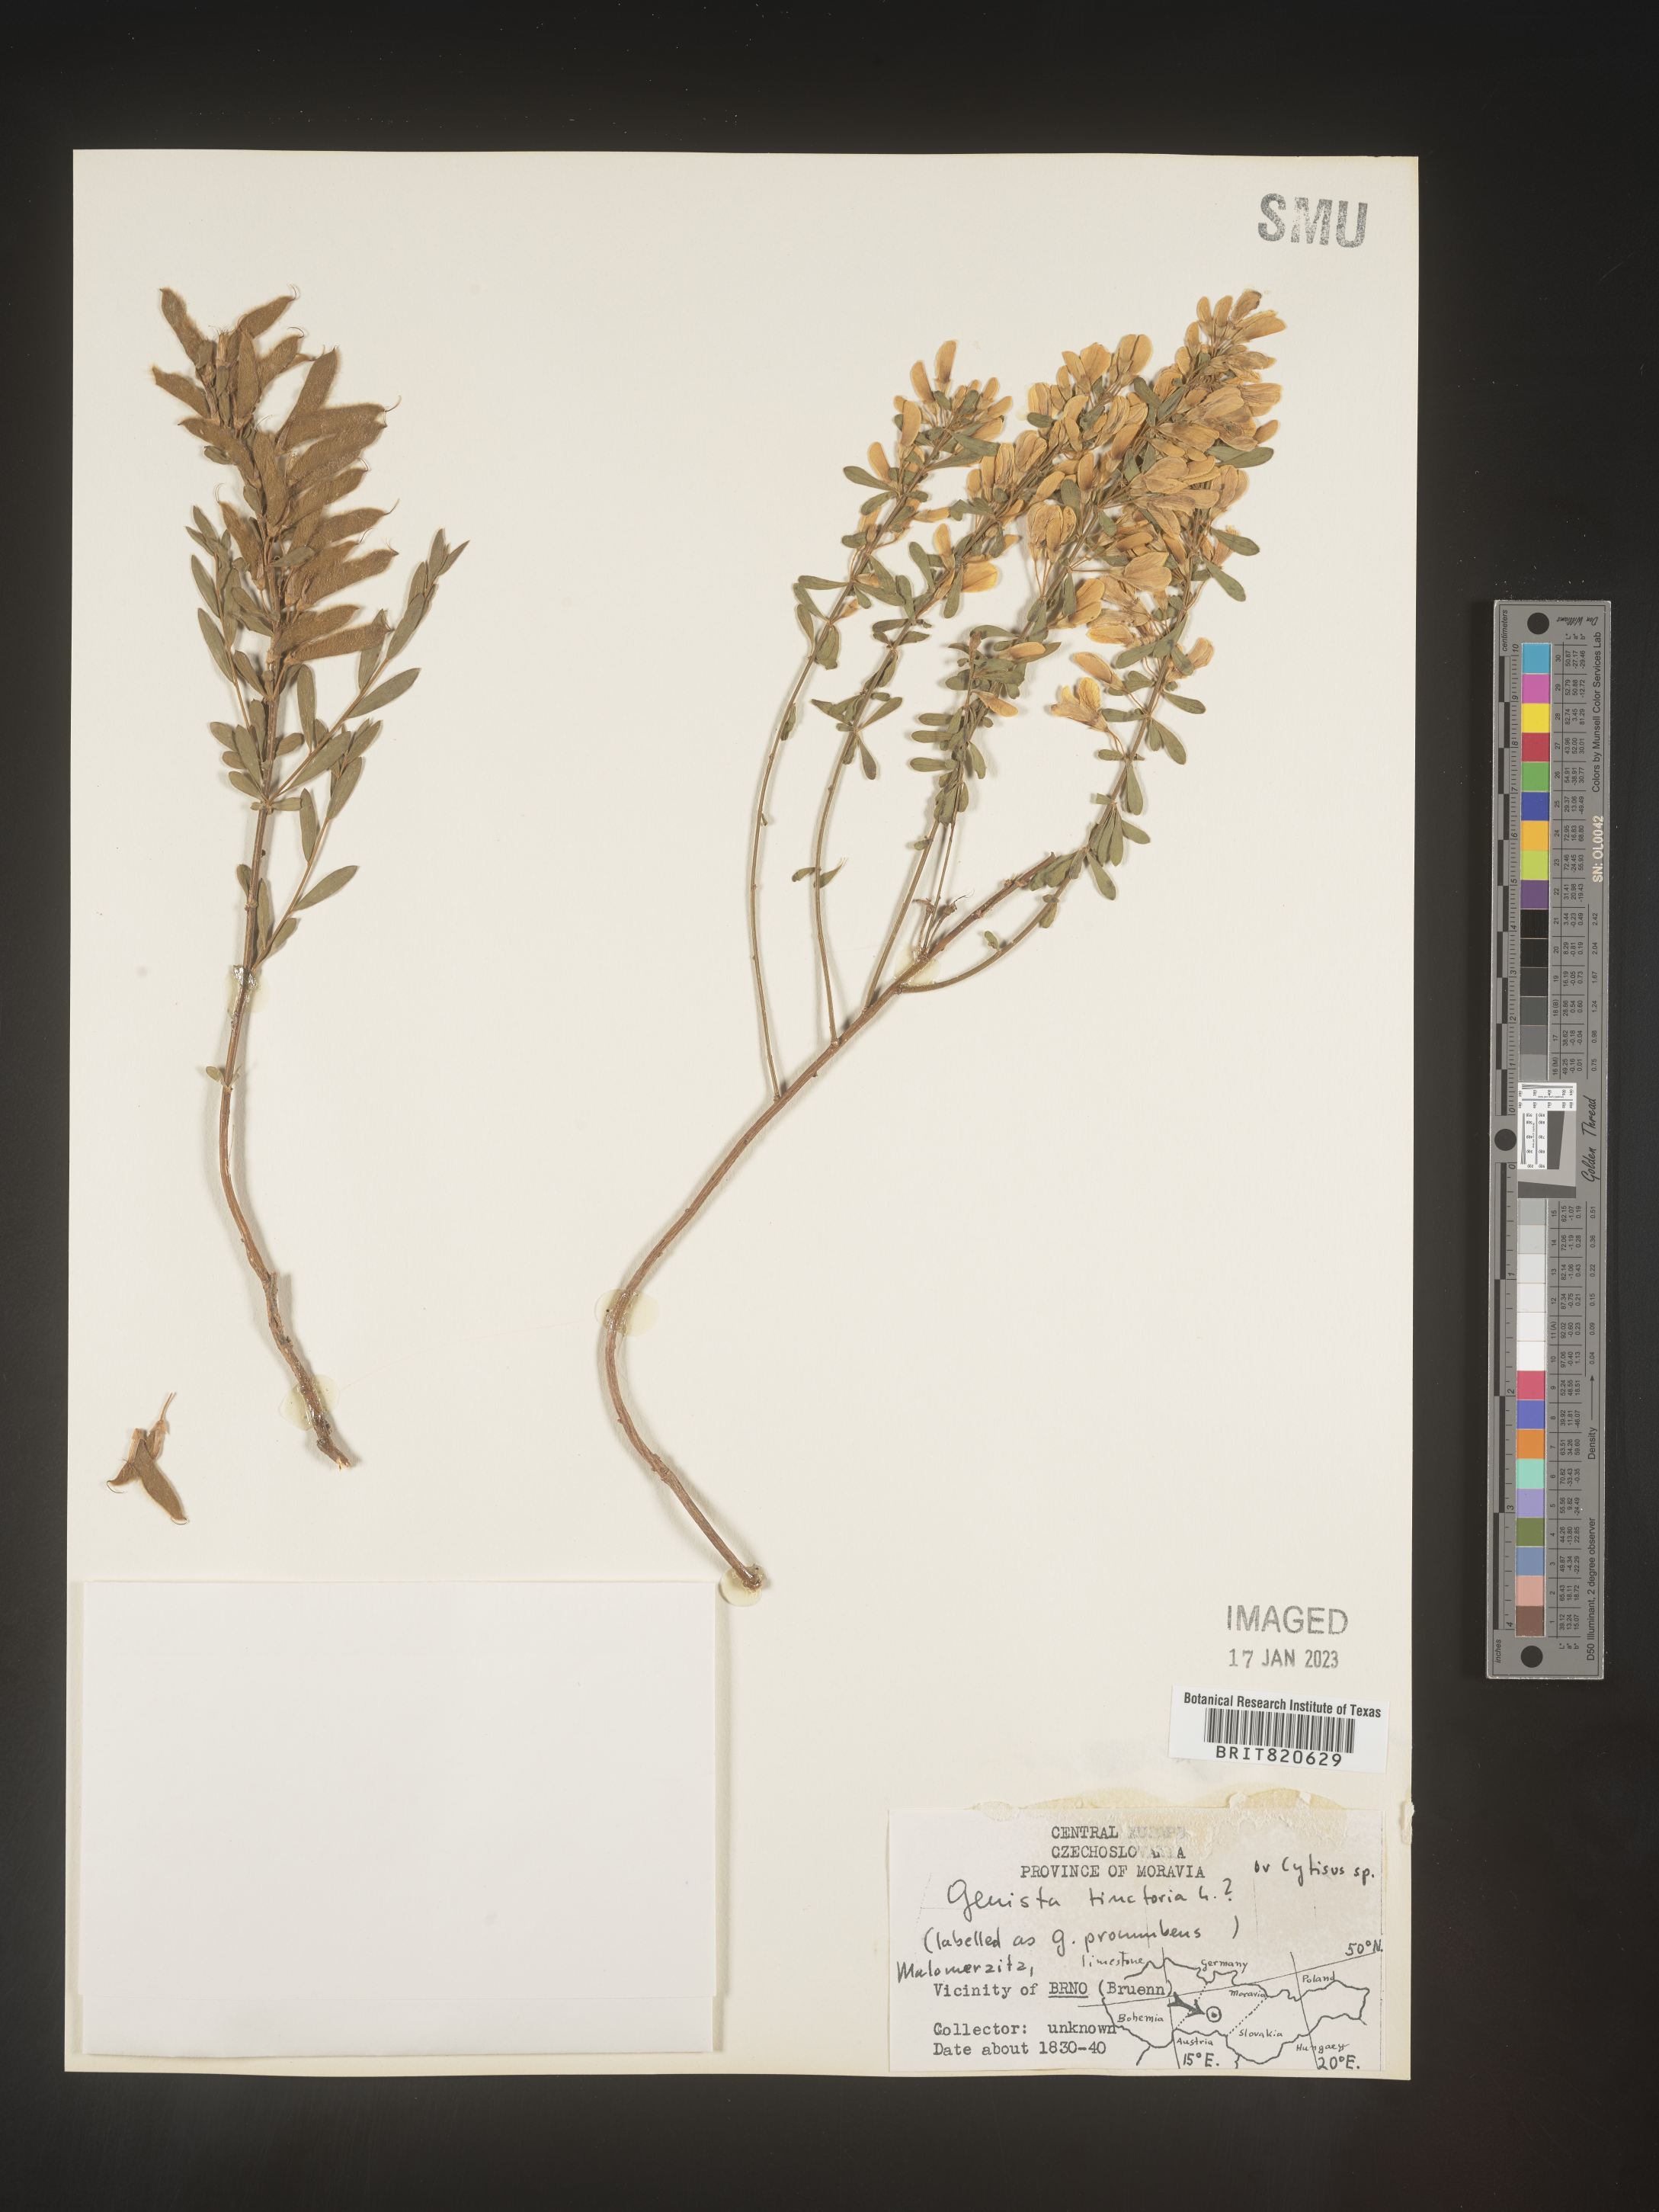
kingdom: Plantae
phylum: Tracheophyta
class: Magnoliopsida
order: Fabales
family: Fabaceae
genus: Genista
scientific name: Genista tinctoria
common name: Dyer's greenweed
